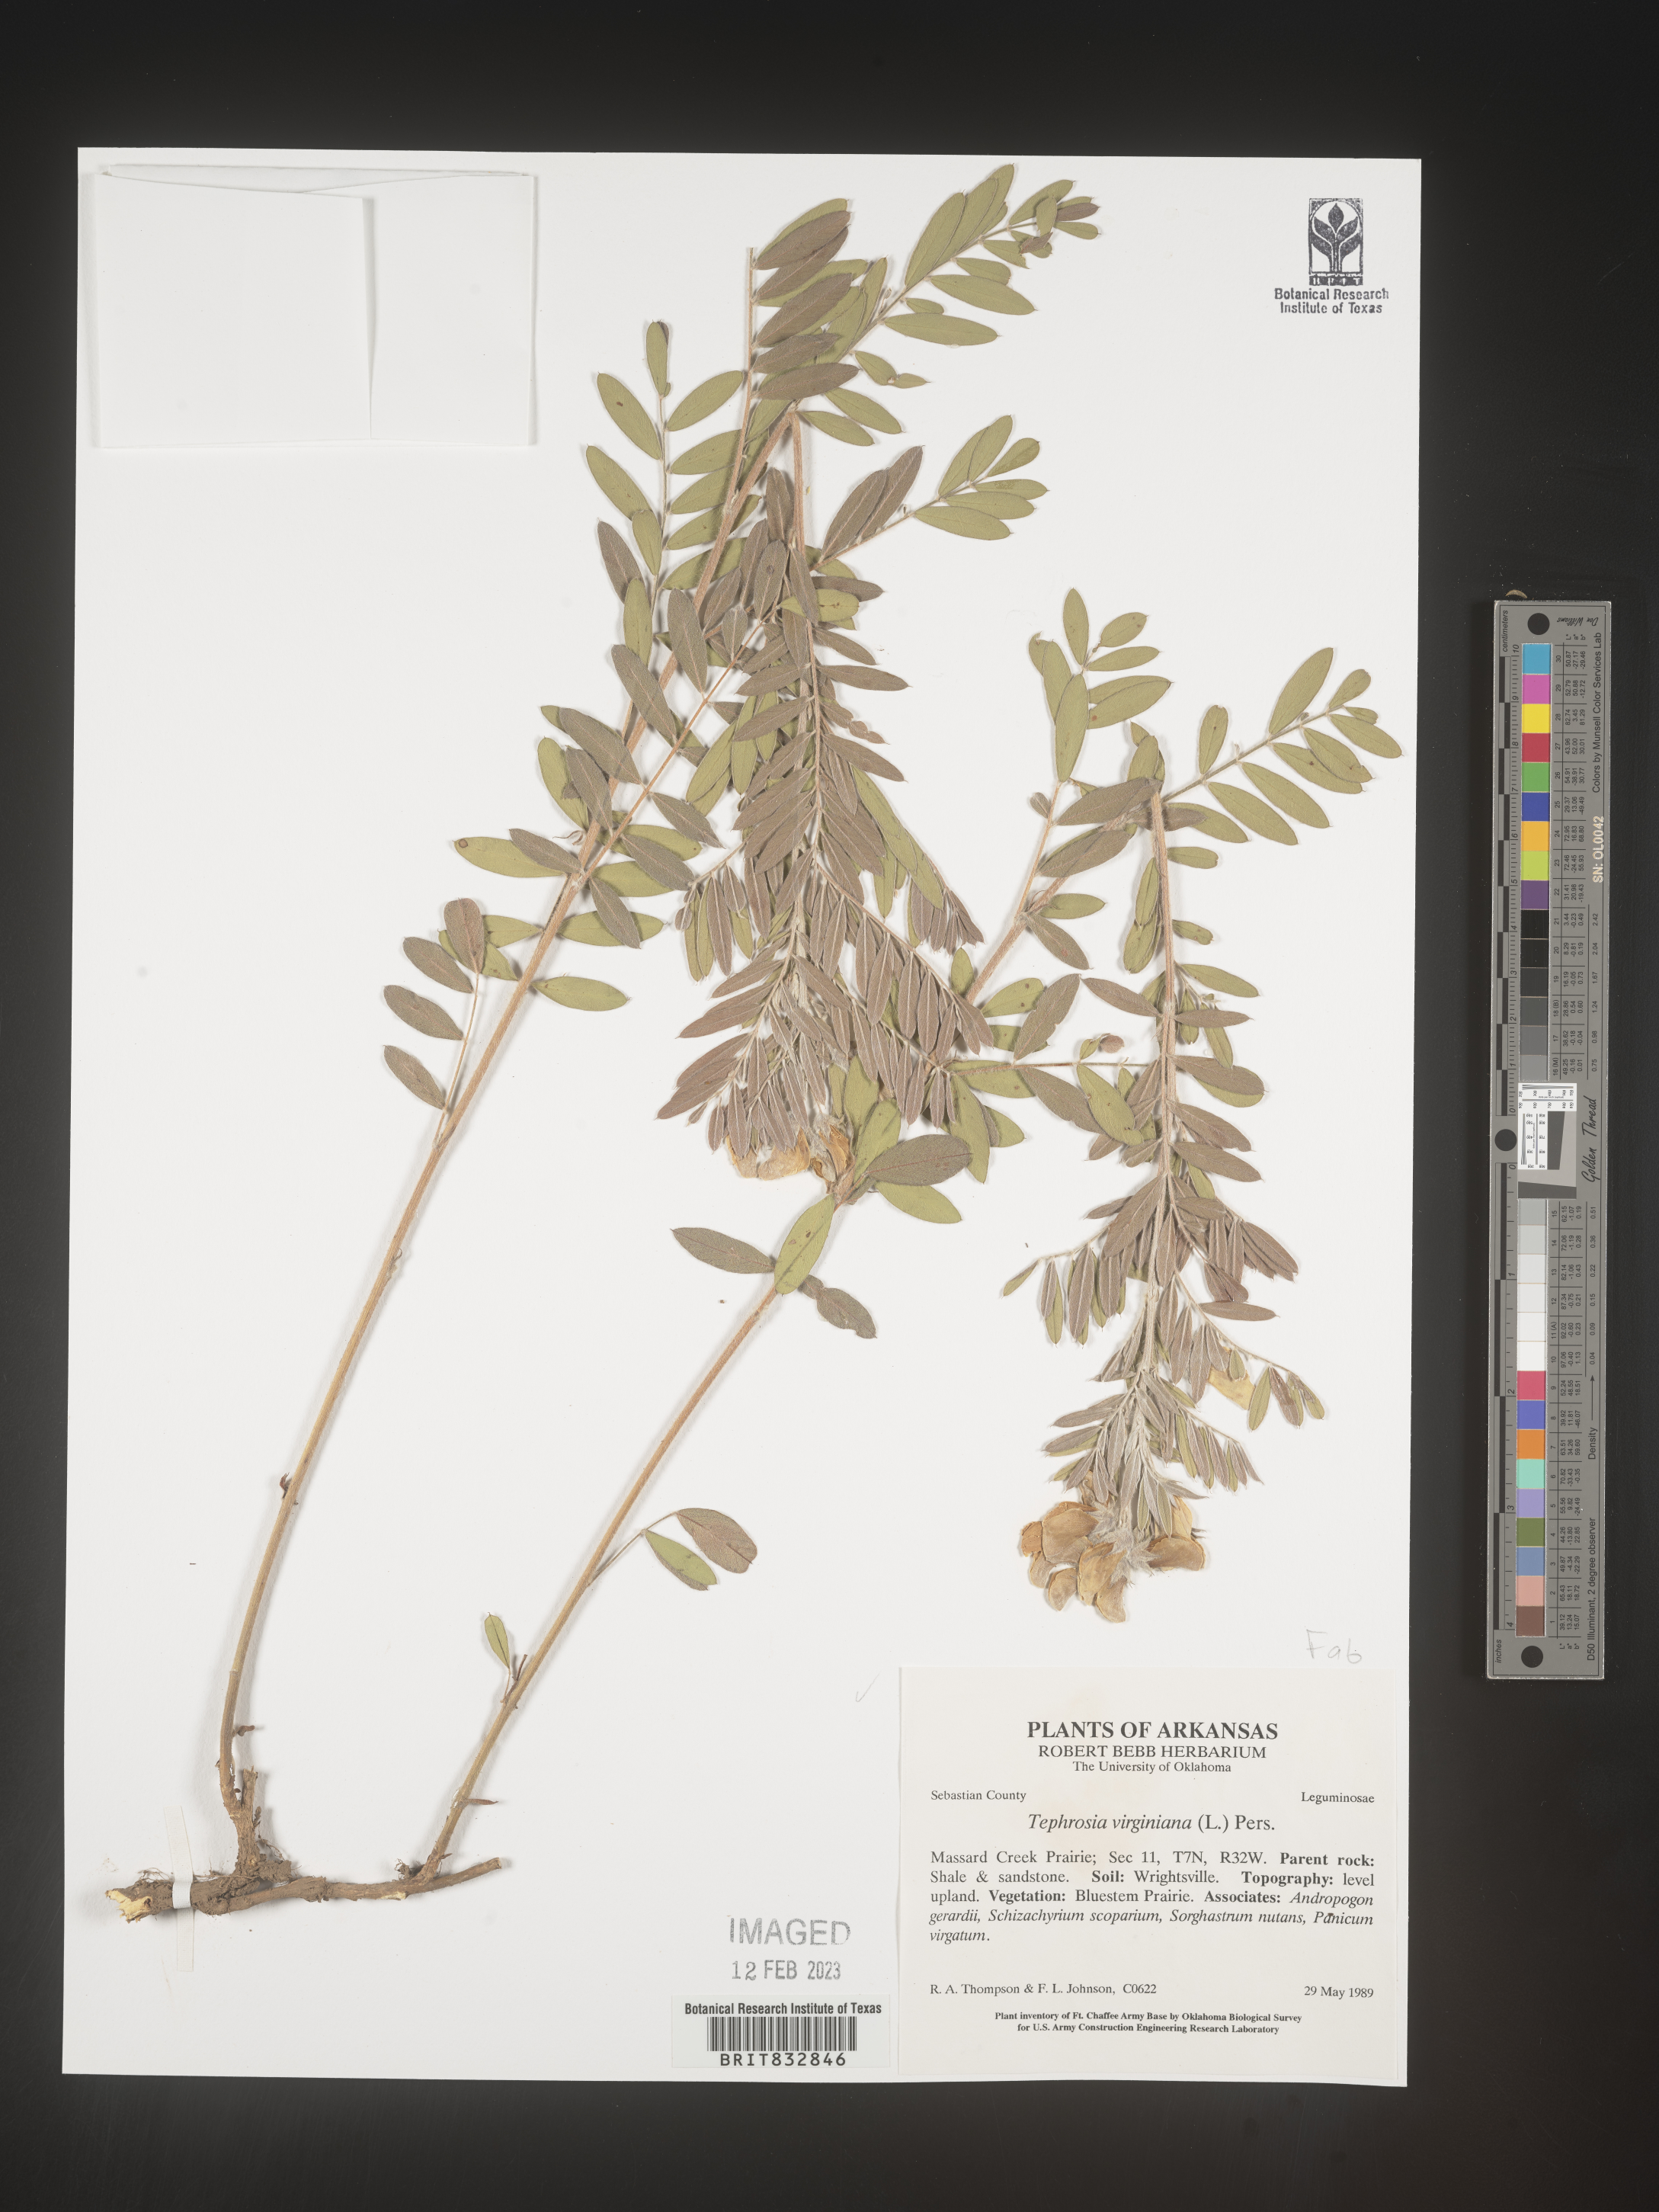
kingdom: Plantae
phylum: Tracheophyta
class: Magnoliopsida
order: Fabales
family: Fabaceae
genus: Tephrosia
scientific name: Tephrosia virginiana
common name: Rabbit-pea
